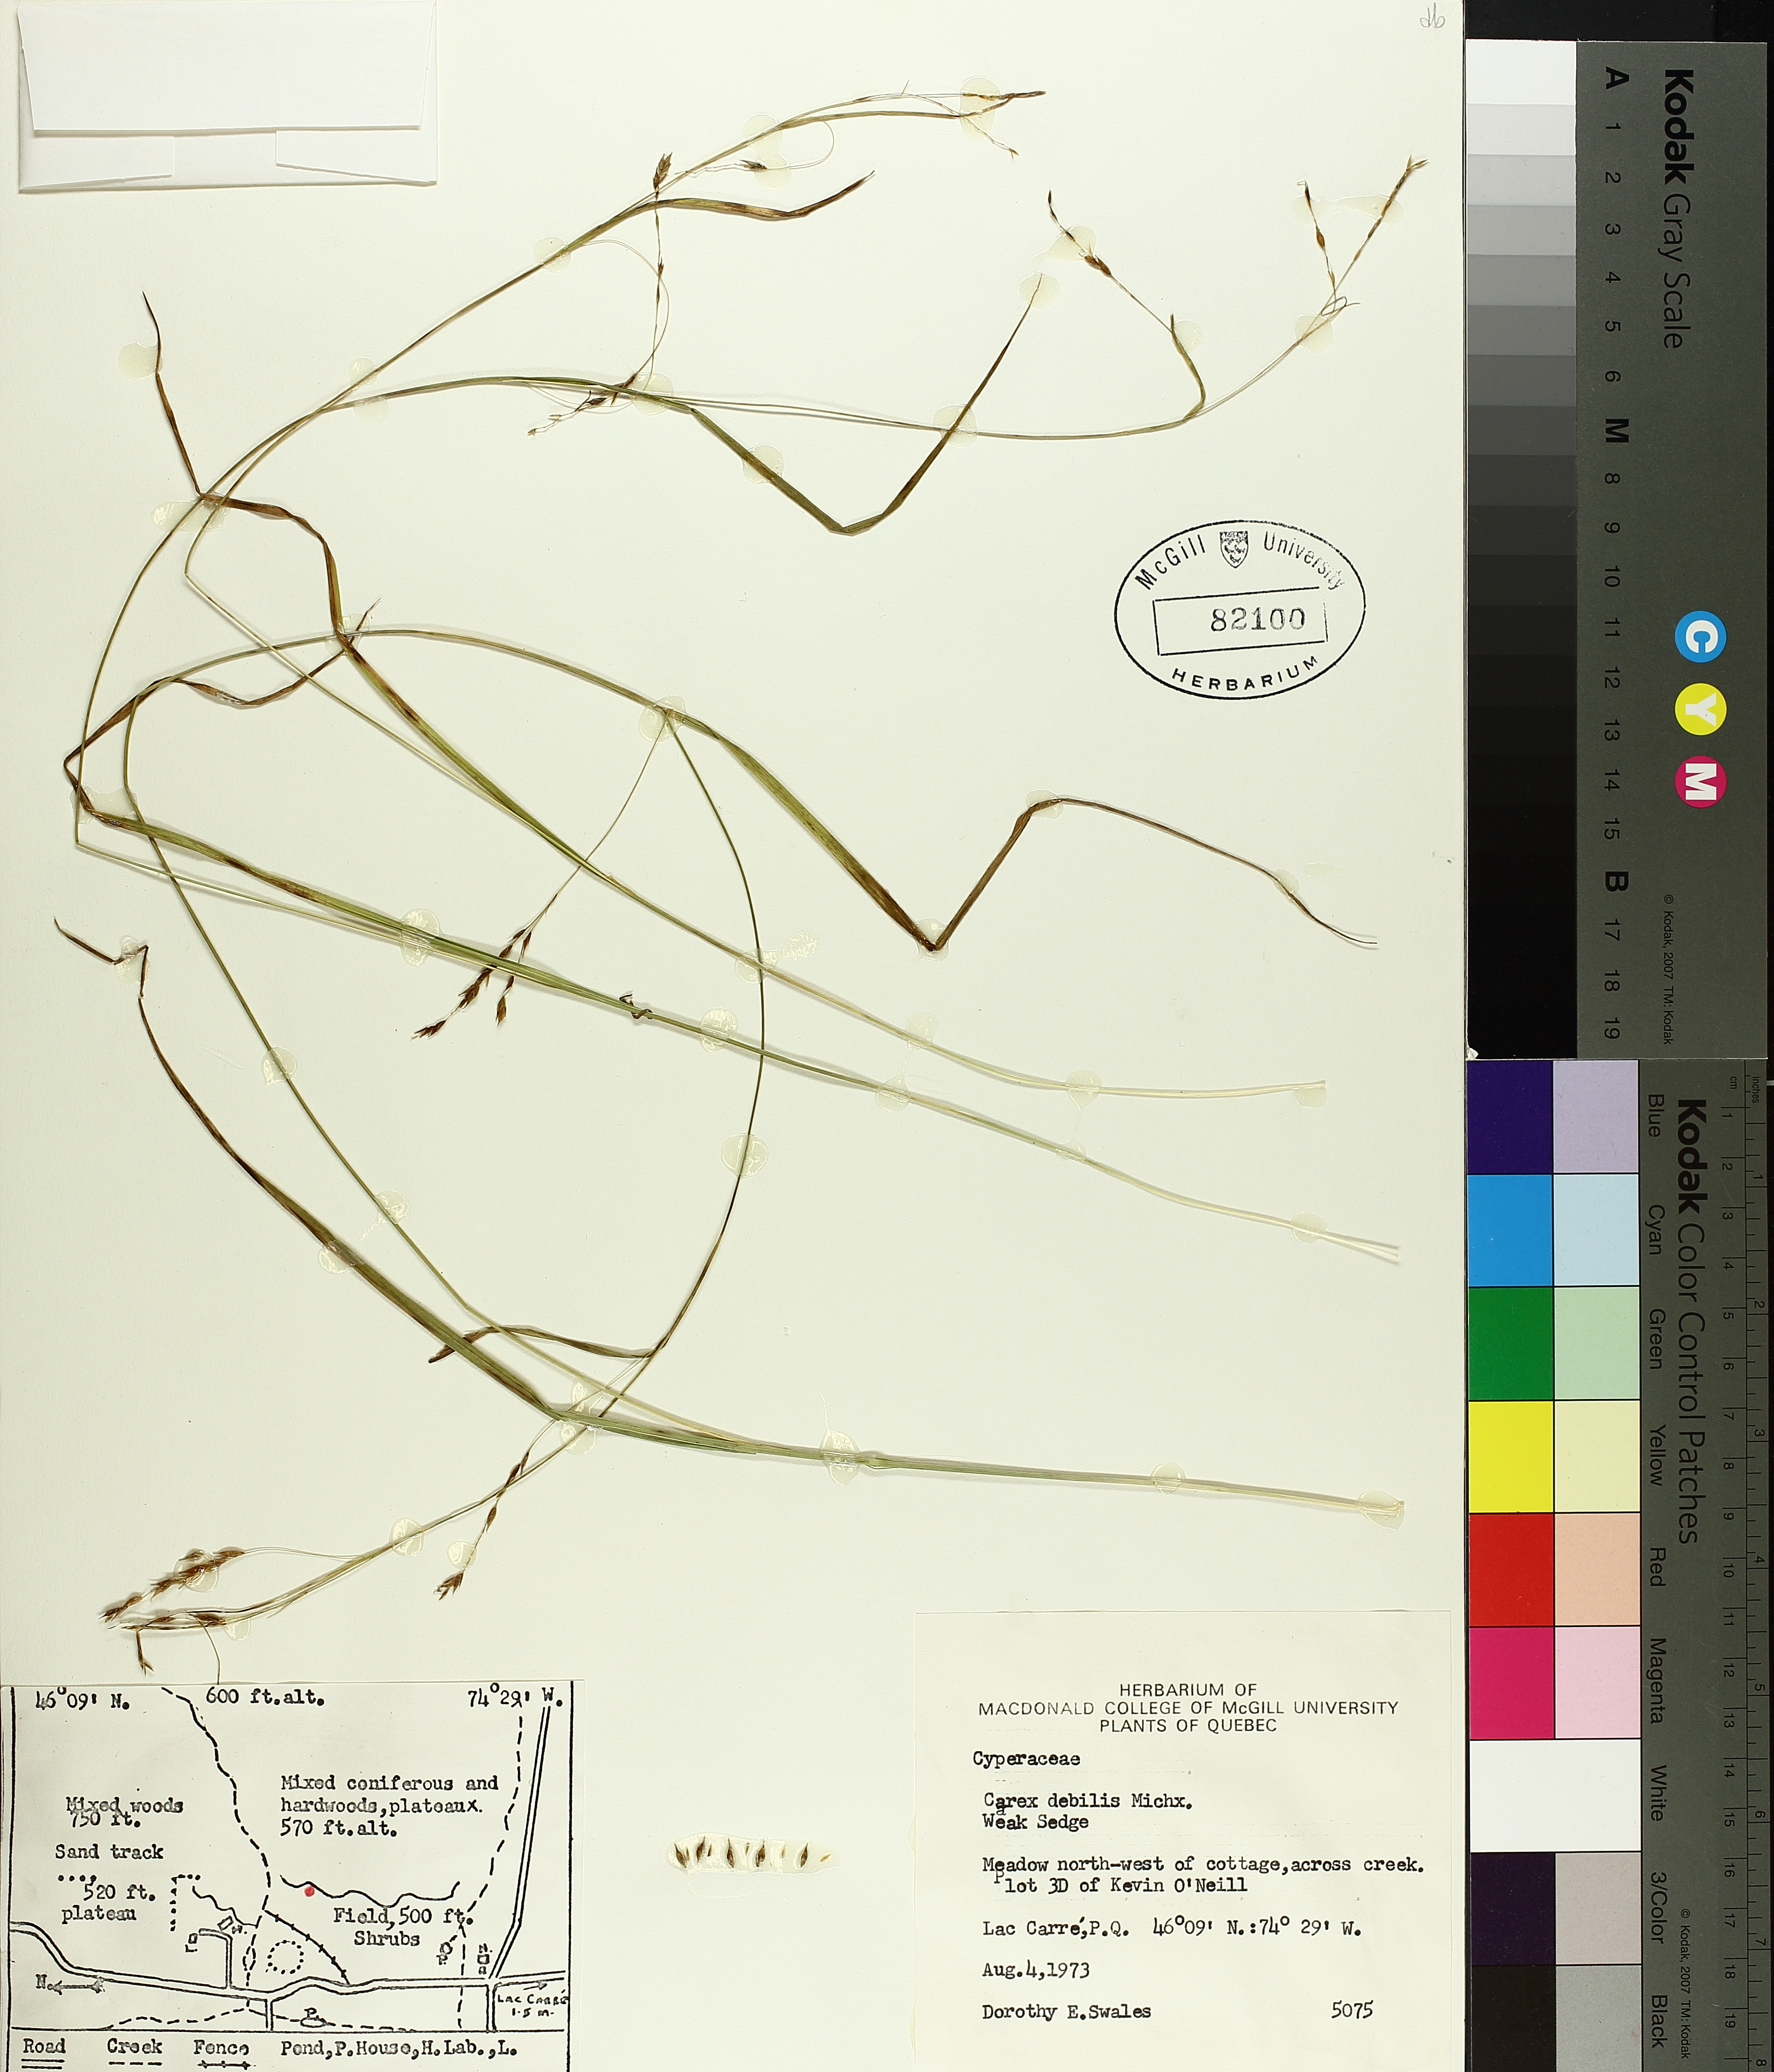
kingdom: Plantae
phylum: Tracheophyta
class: Liliopsida
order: Poales
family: Cyperaceae
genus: Carex
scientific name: Carex debilis
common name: White-edge sedge
